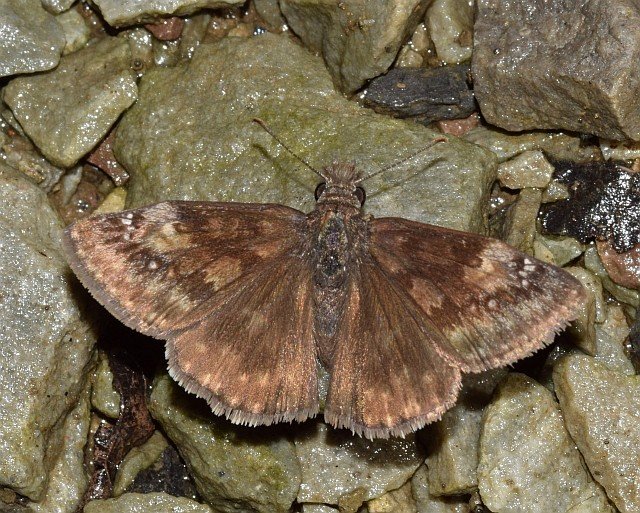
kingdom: Animalia
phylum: Arthropoda
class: Insecta
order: Lepidoptera
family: Hesperiidae
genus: Gesta
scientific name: Gesta
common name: Horace's Duskywing
